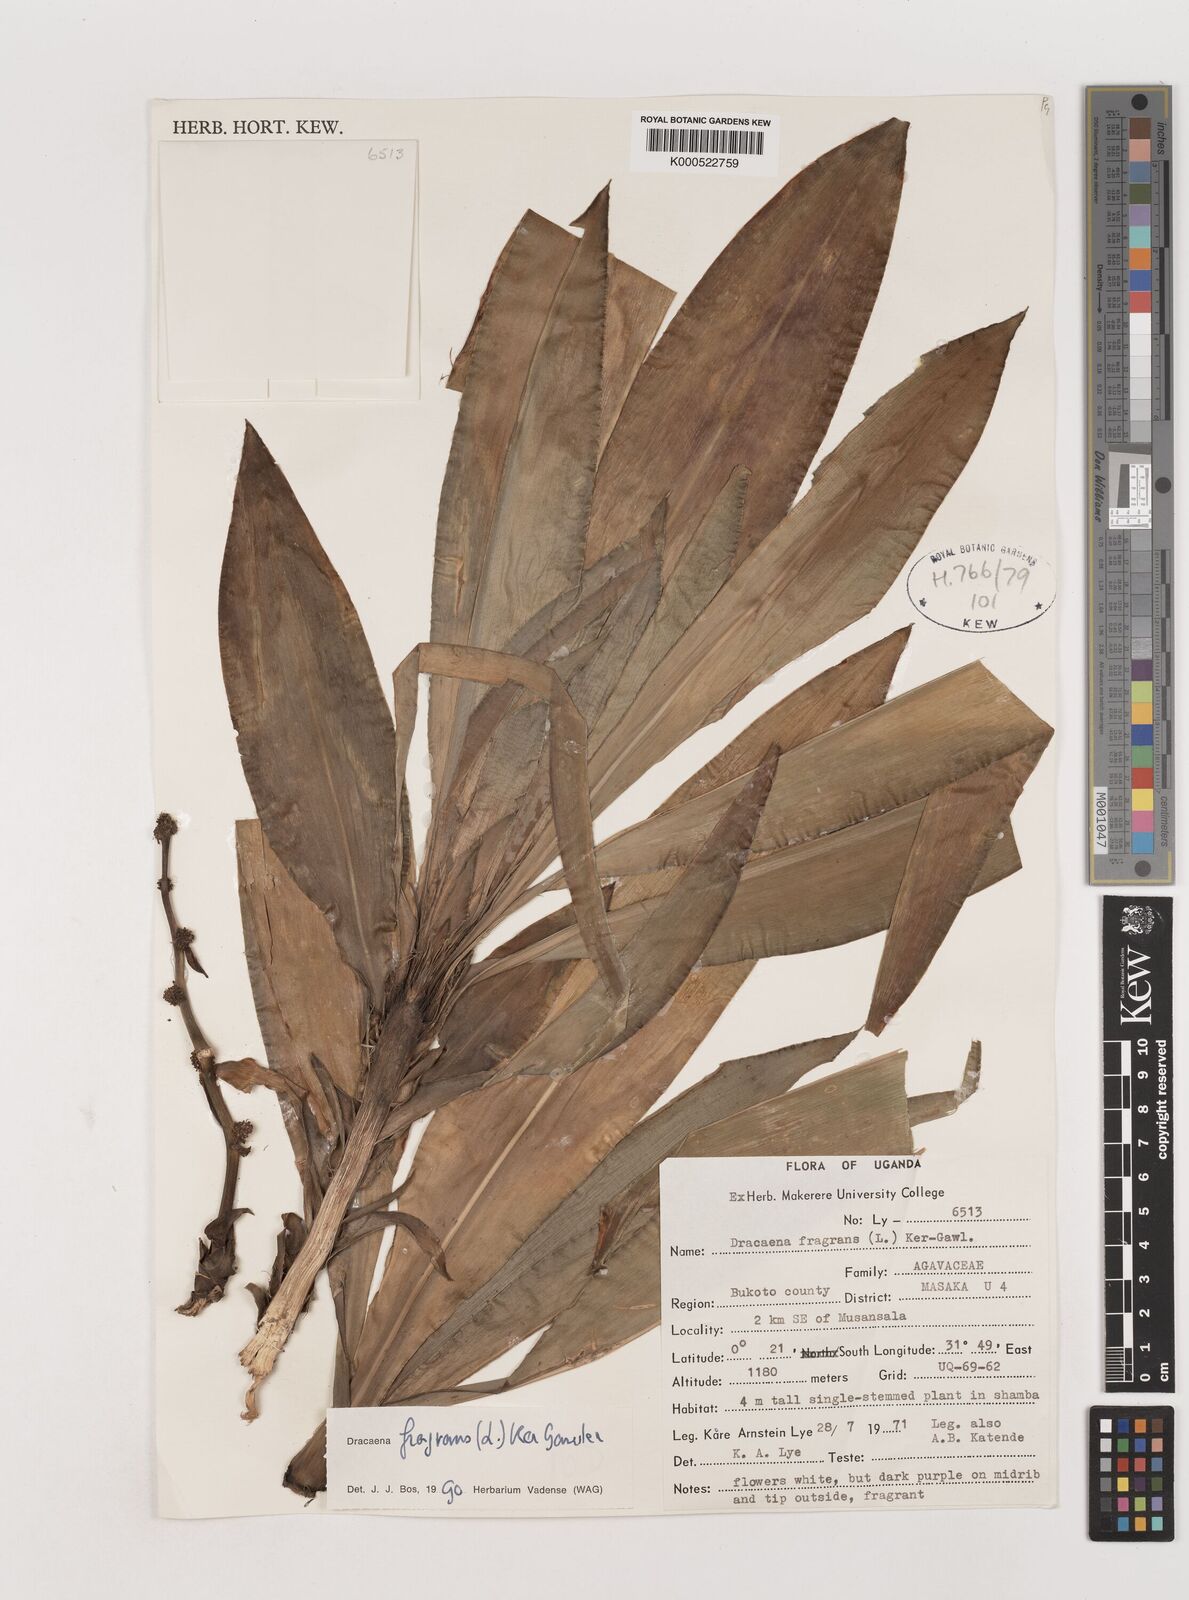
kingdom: Plantae
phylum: Tracheophyta
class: Liliopsida
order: Asparagales
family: Asparagaceae
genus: Dracaena
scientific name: Dracaena fragrans
